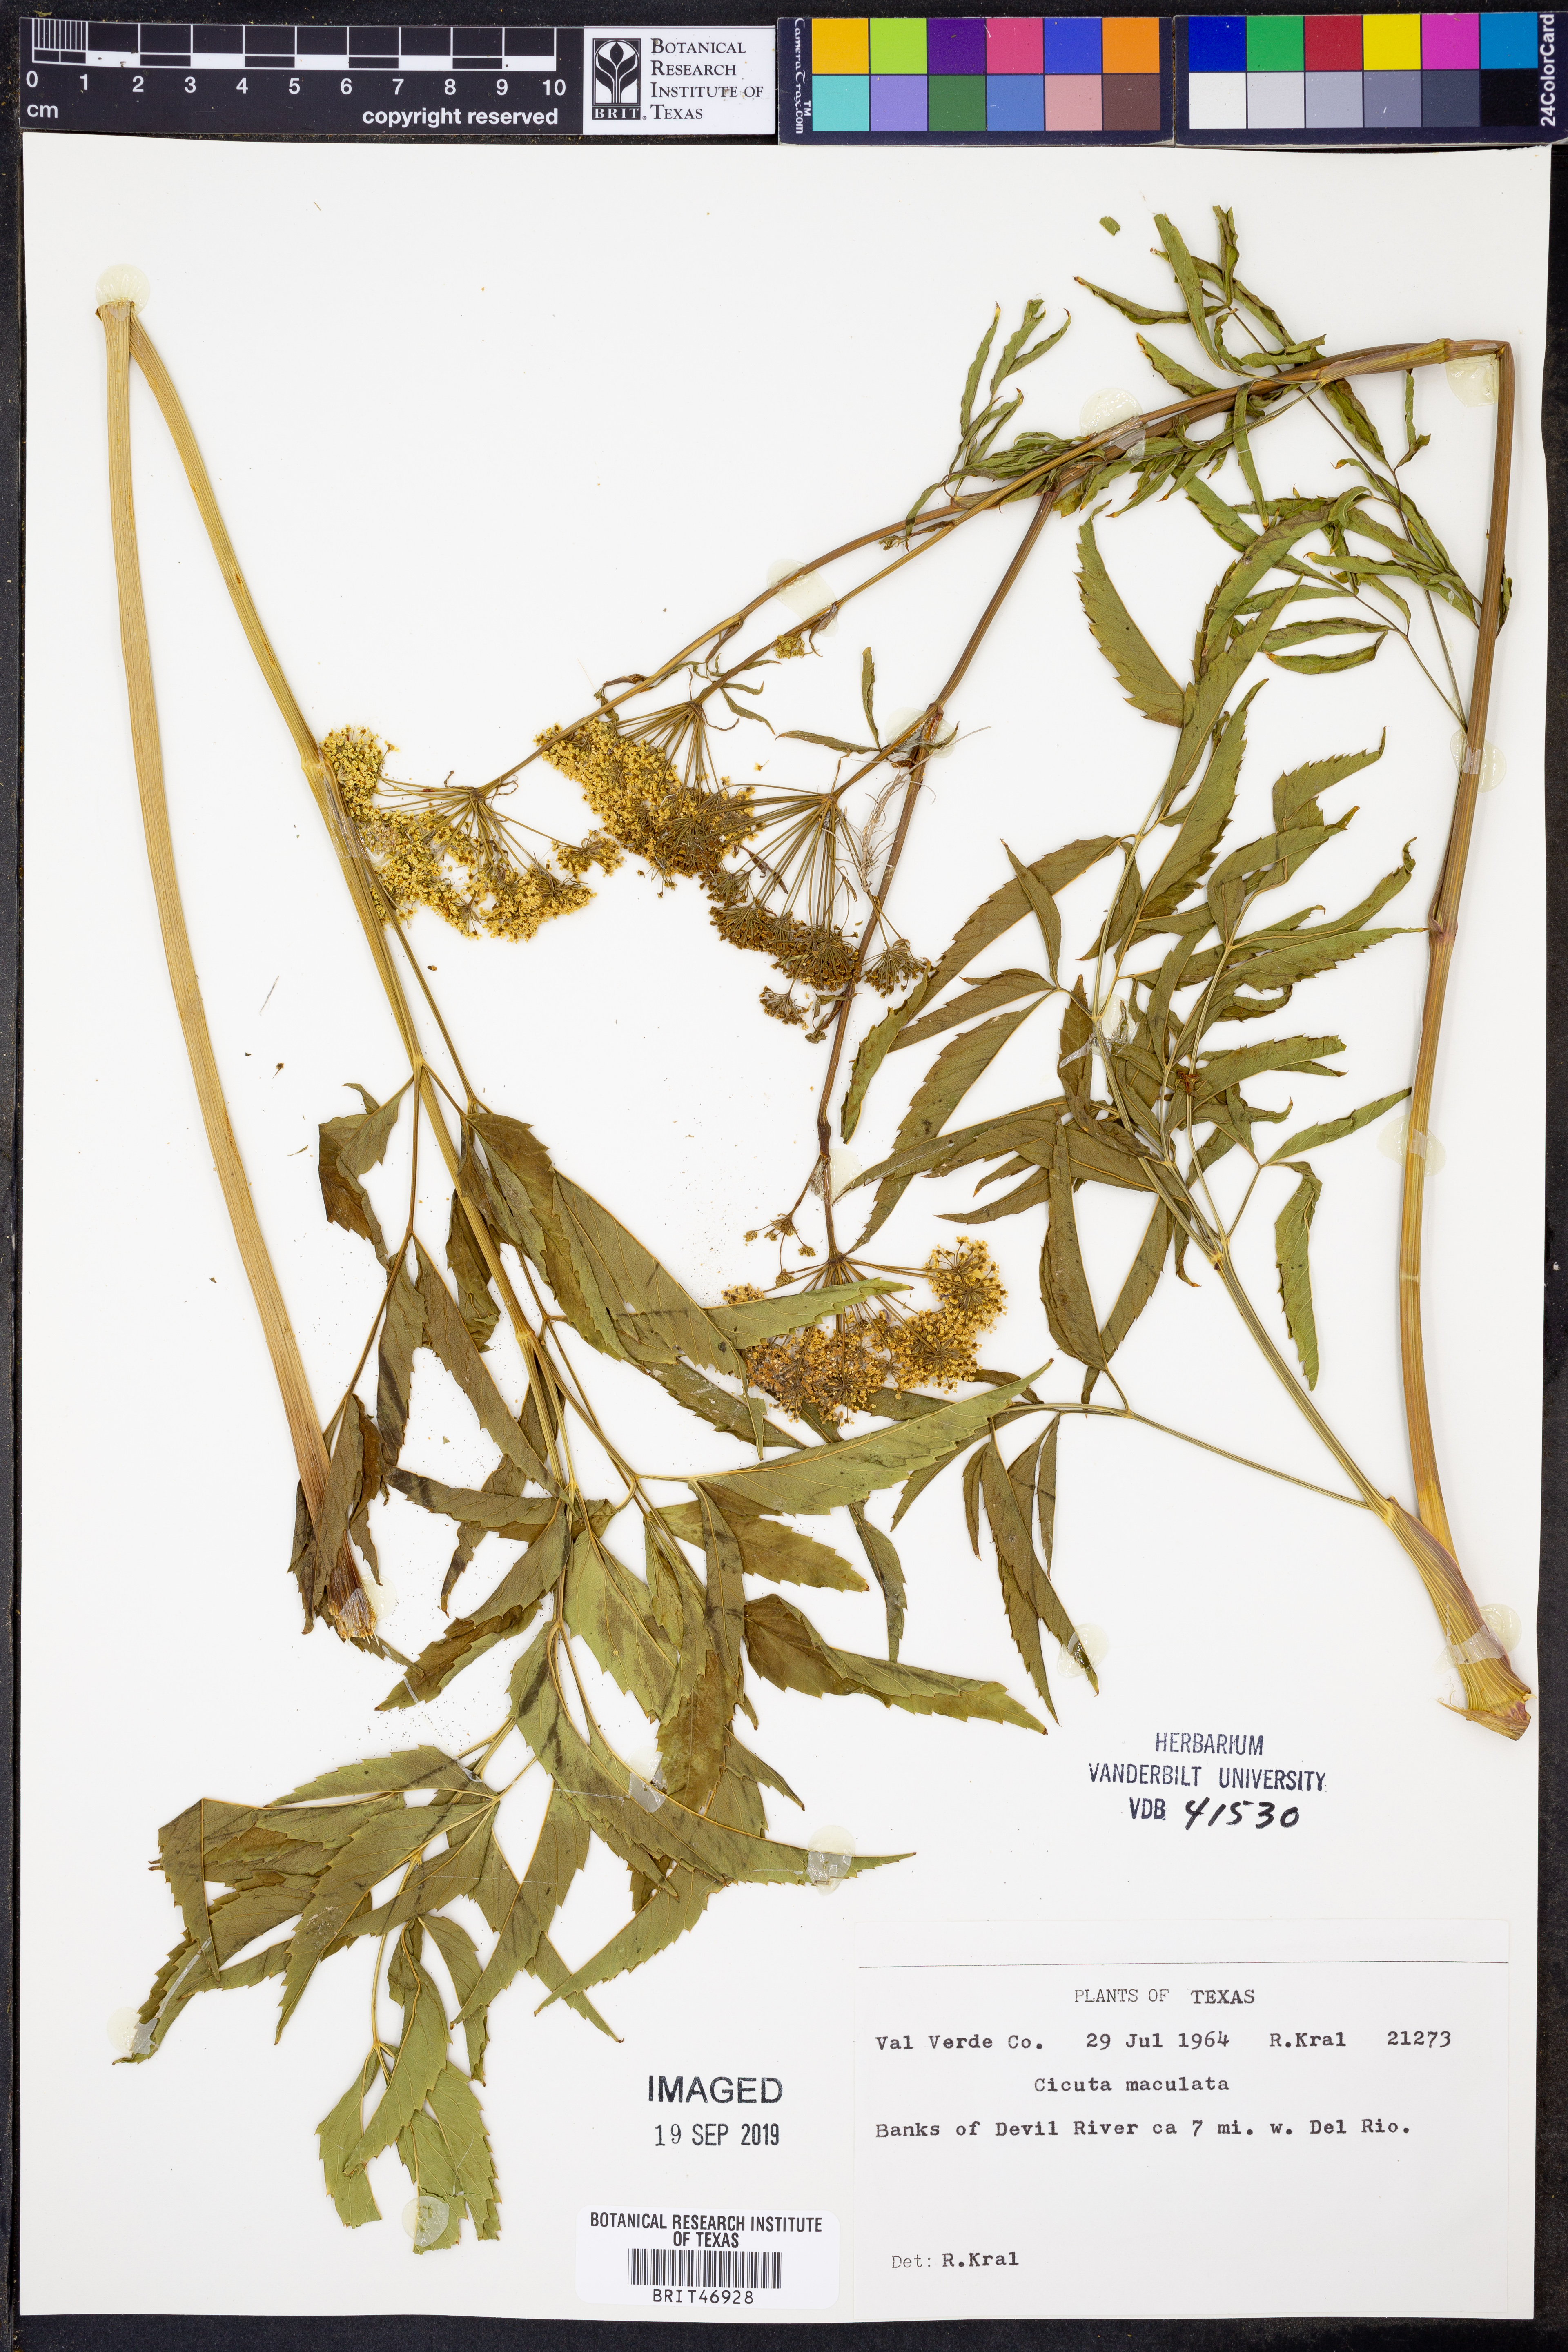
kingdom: Plantae
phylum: Tracheophyta
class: Magnoliopsida
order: Apiales
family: Apiaceae
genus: Cicuta
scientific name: Cicuta maculata
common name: Spotted cowbane
